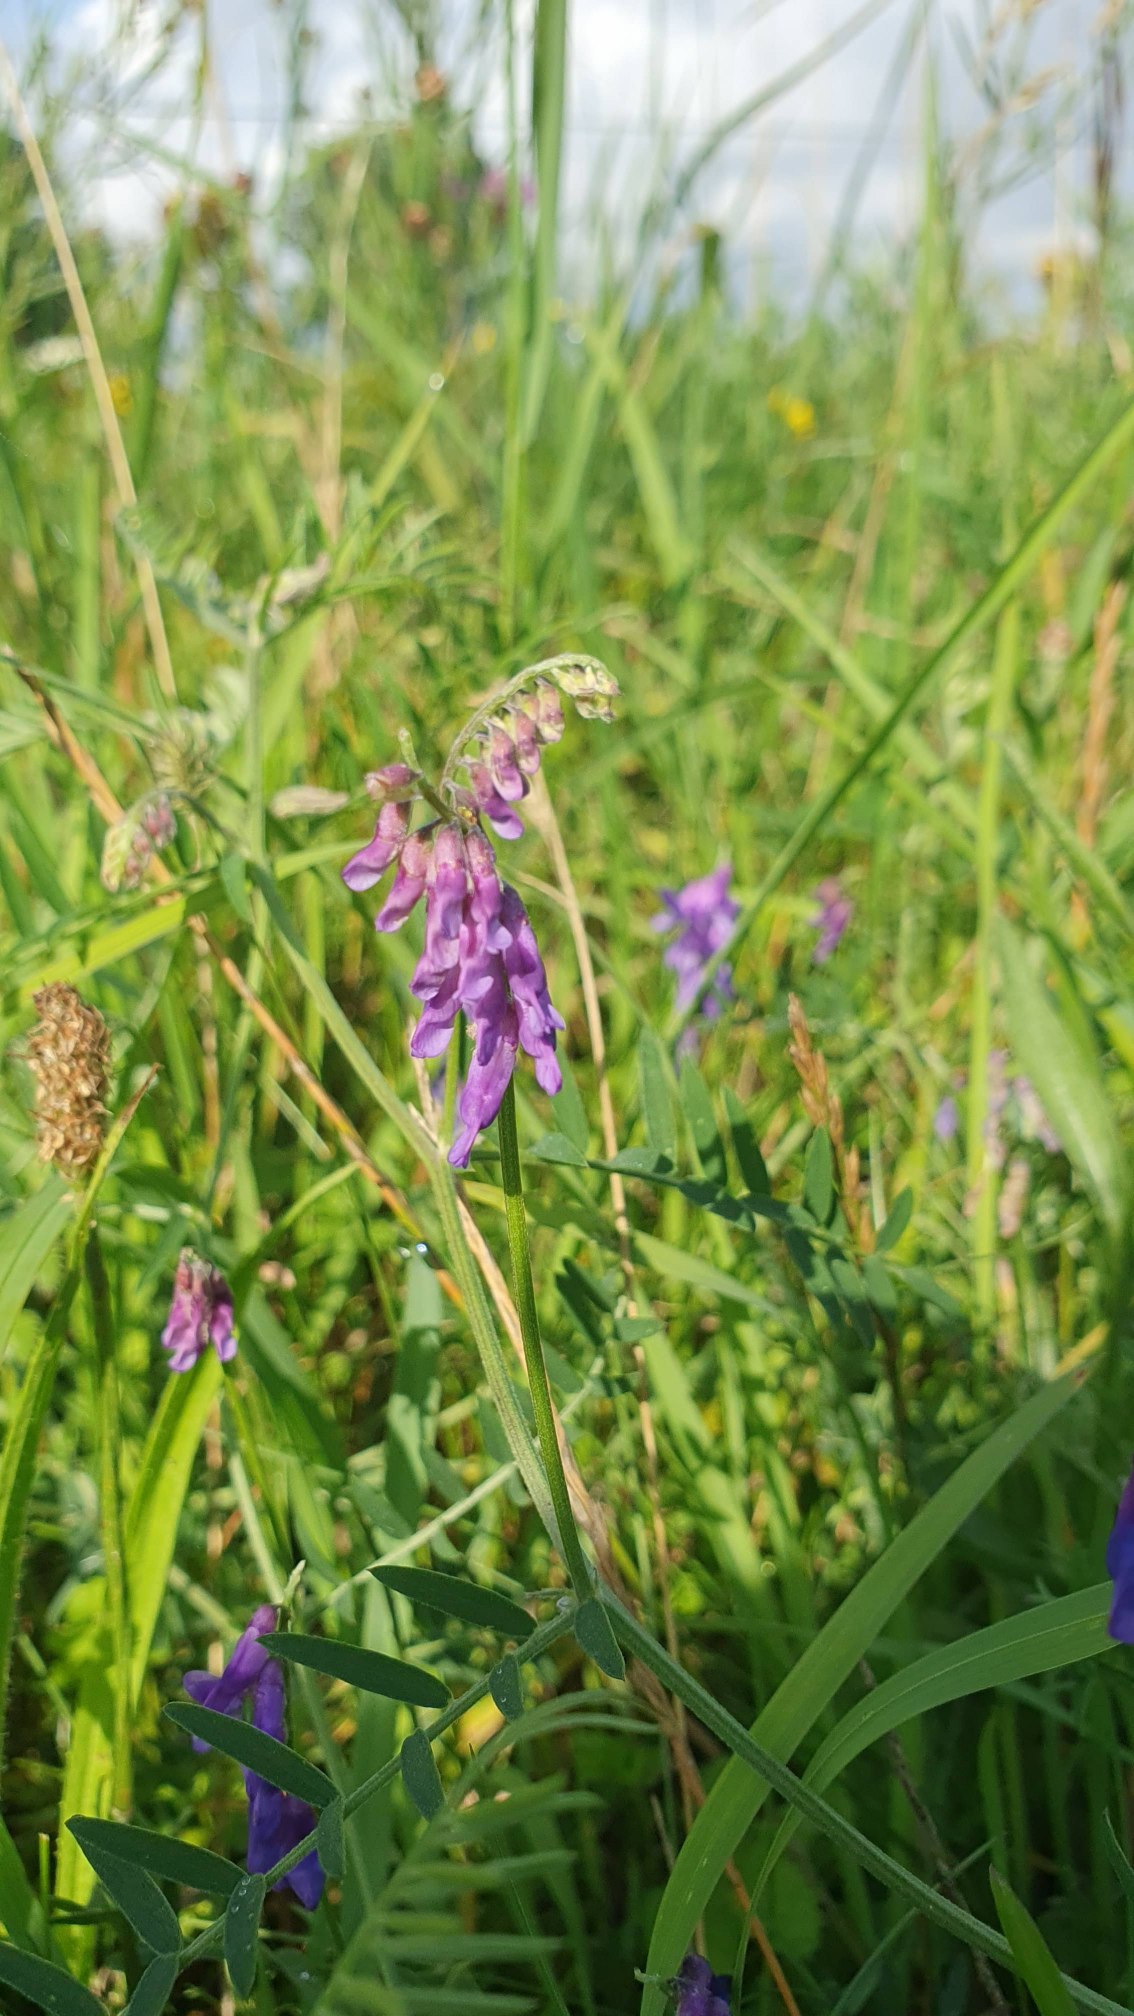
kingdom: Plantae
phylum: Tracheophyta
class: Magnoliopsida
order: Fabales
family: Fabaceae
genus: Vicia
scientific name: Vicia cracca
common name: Muse-vikke
